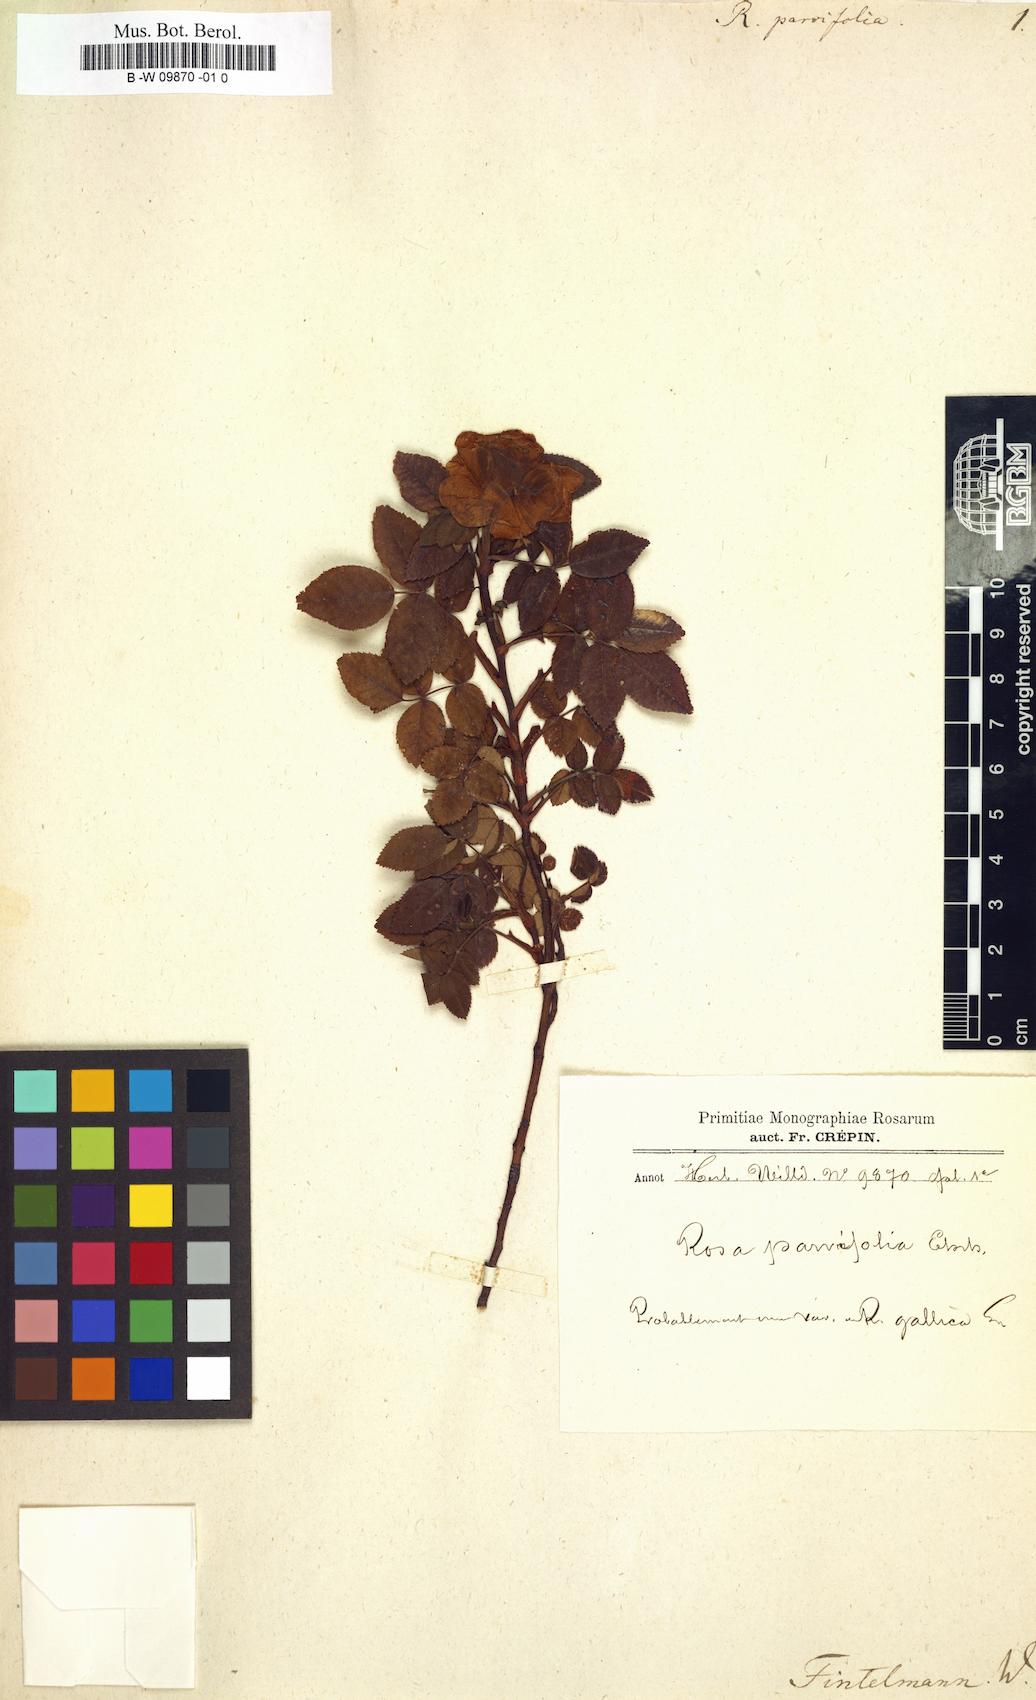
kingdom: Plantae
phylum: Tracheophyta
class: Magnoliopsida
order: Rosales
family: Rosaceae
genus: Rosa
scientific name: Rosa
